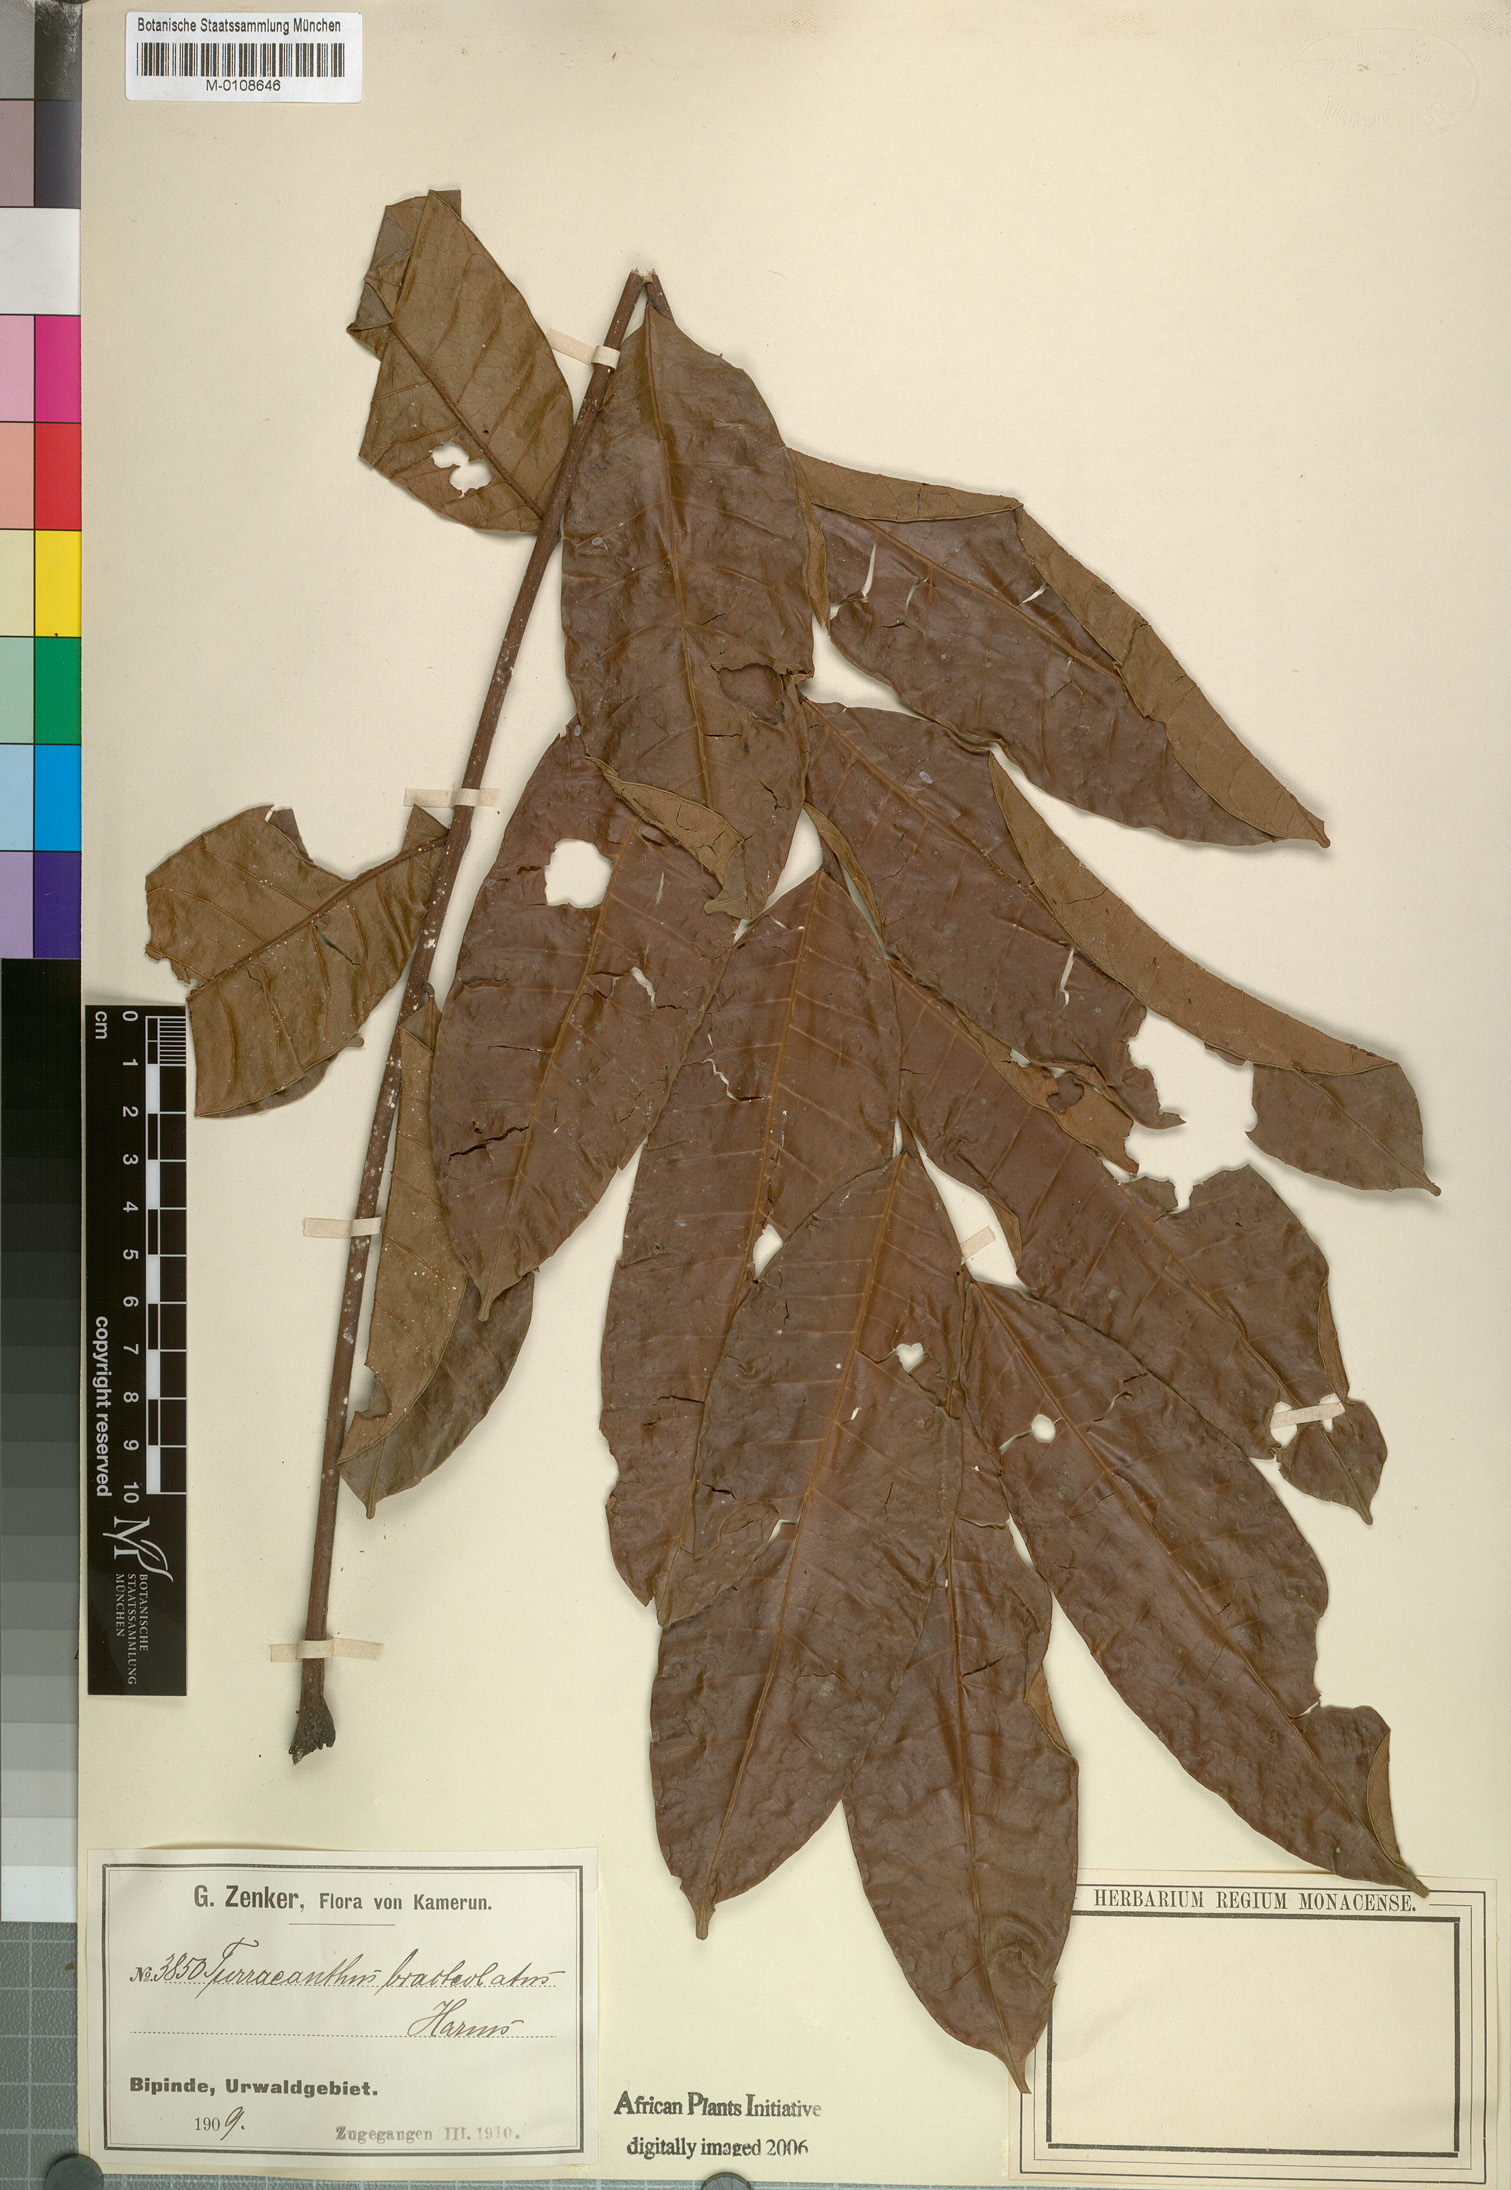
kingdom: Plantae
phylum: Tracheophyta
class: Magnoliopsida
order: Sapindales
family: Meliaceae
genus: Turraeanthus
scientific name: Turraeanthus longipes
